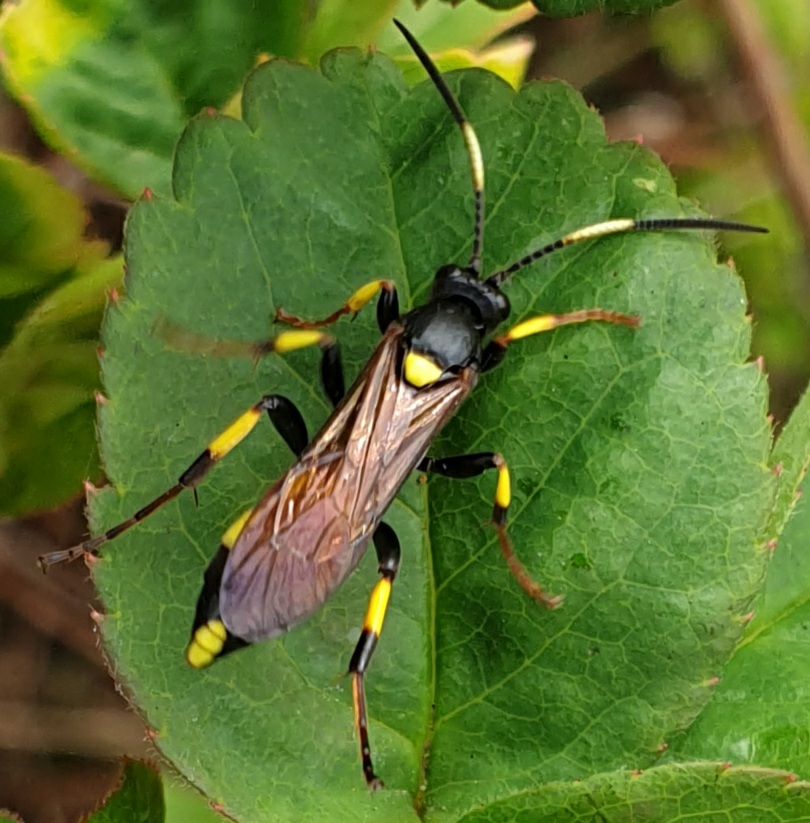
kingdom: Animalia
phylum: Arthropoda
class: Insecta
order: Hymenoptera
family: Ichneumonidae
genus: Ichneumon
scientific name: Ichneumon stramentor
